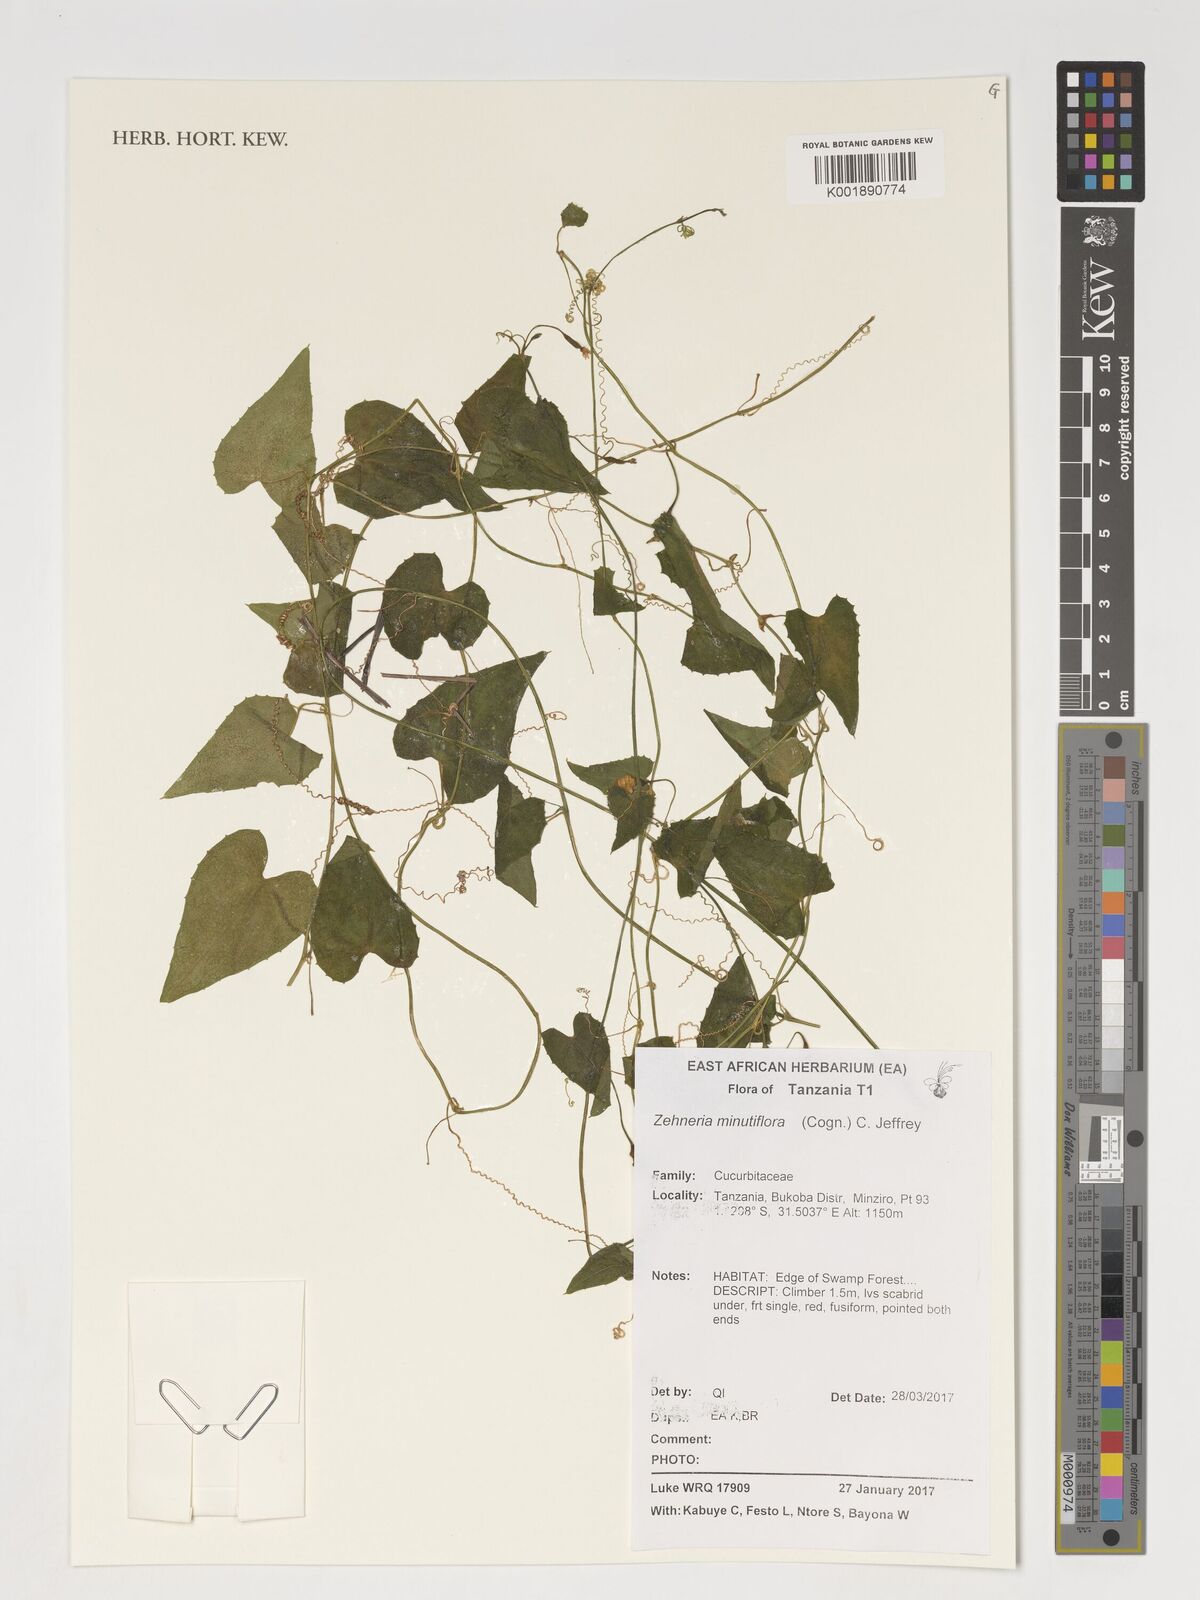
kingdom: Plantae
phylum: Tracheophyta
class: Magnoliopsida
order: Cucurbitales
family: Cucurbitaceae
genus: Zehneria
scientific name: Zehneria minutiflora
